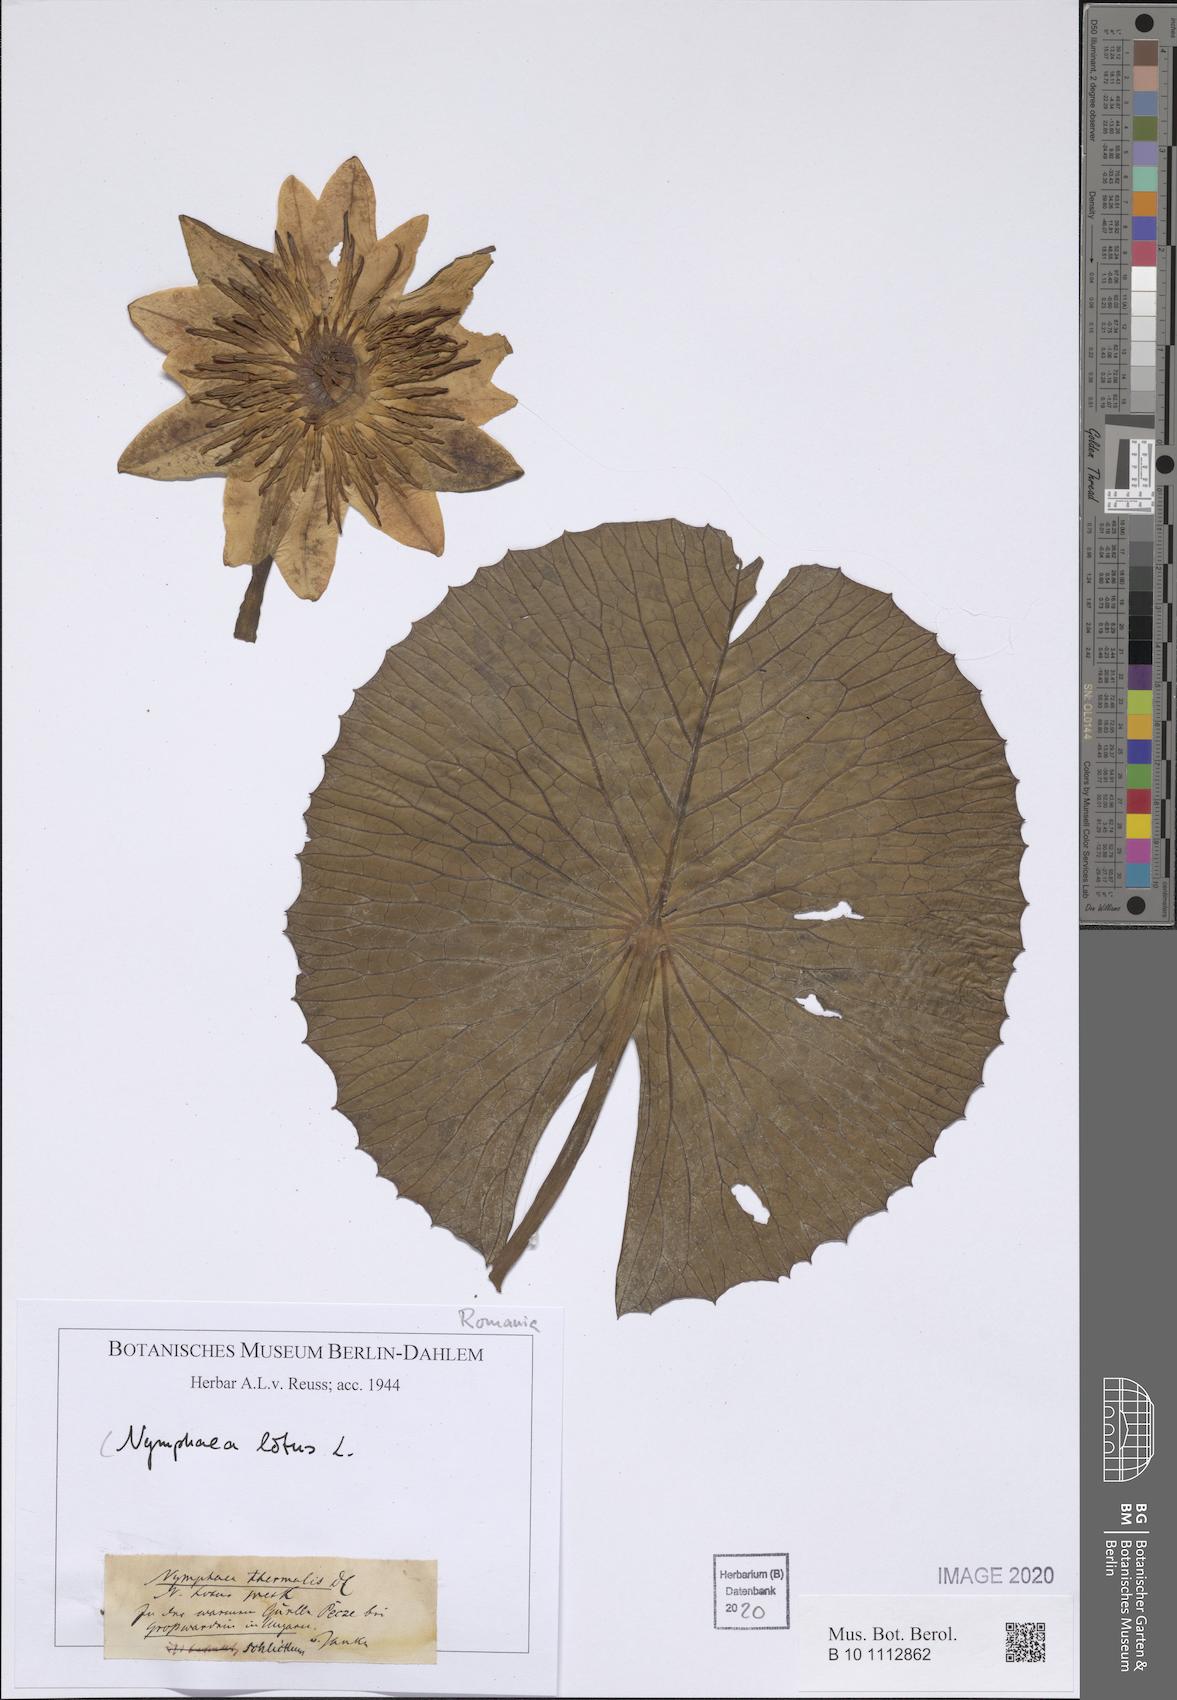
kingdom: Plantae
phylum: Tracheophyta
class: Magnoliopsida
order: Nymphaeales
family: Nymphaeaceae
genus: Nymphaea
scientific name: Nymphaea lotus
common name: White egyptian lotus
